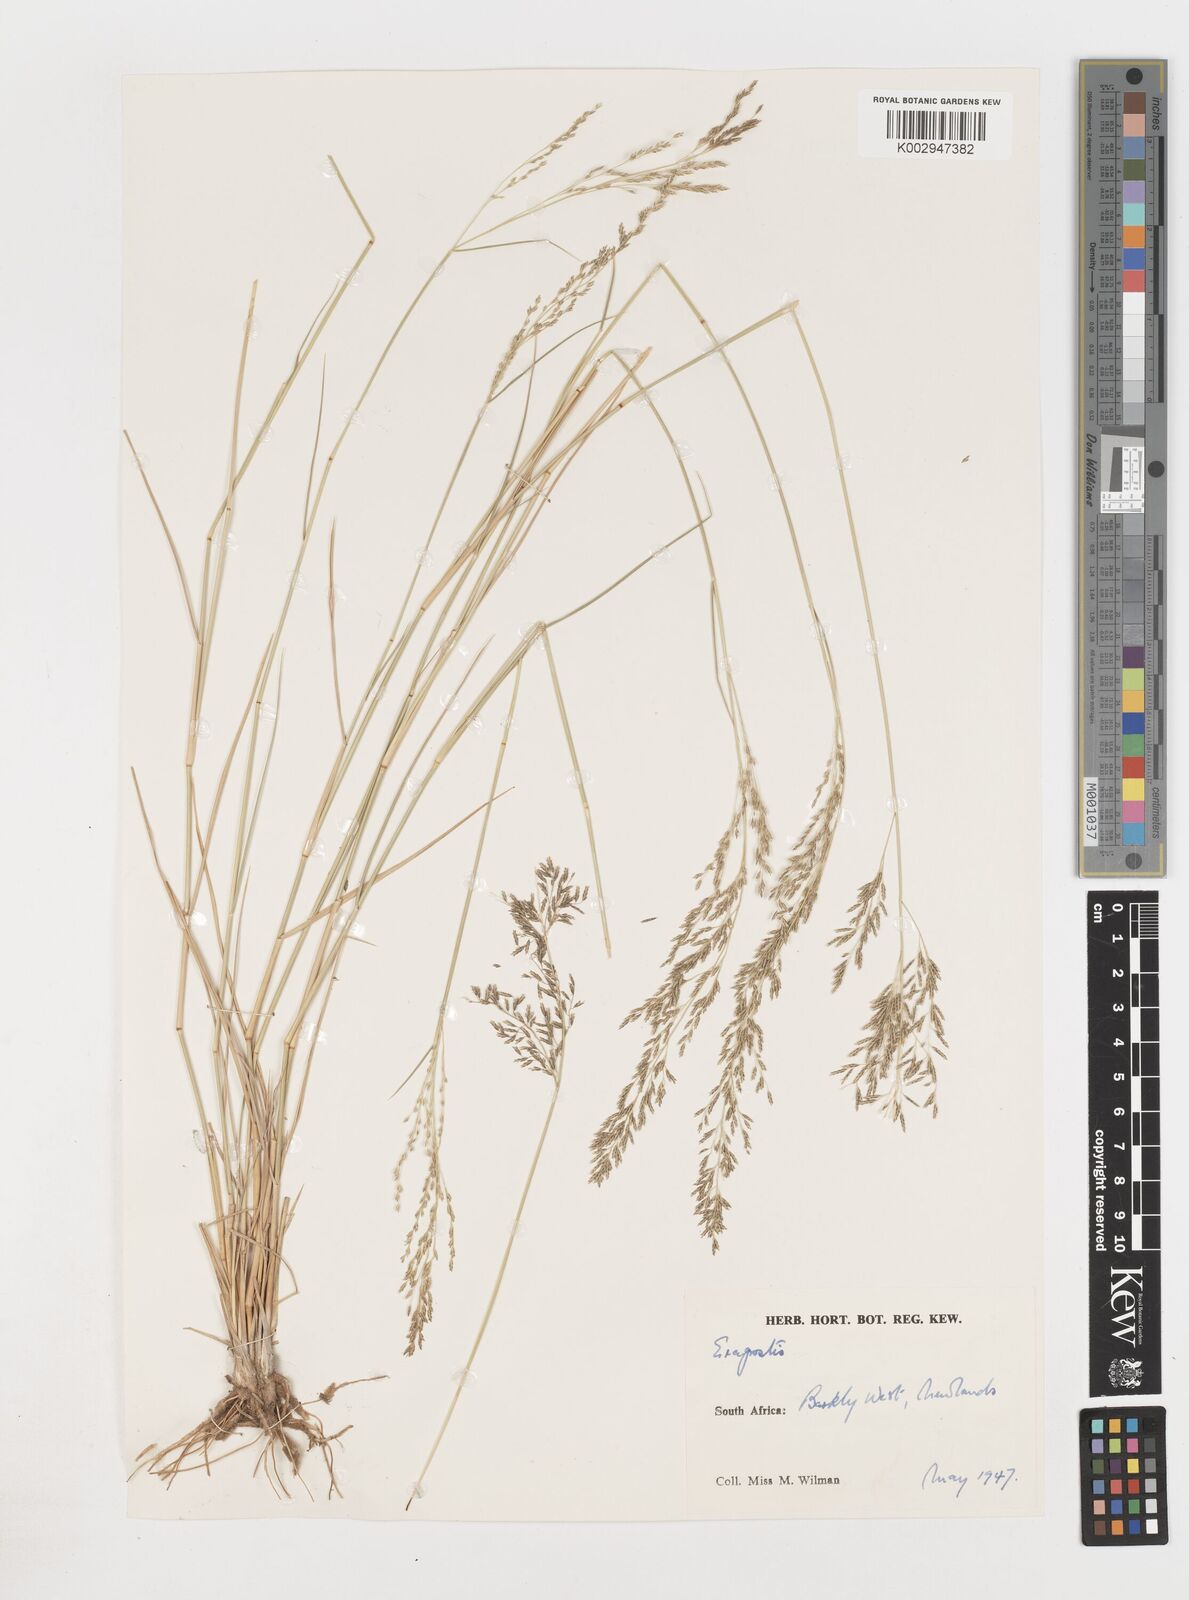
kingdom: Plantae
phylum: Tracheophyta
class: Liliopsida
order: Poales
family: Poaceae
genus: Eragrostis
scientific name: Eragrostis
